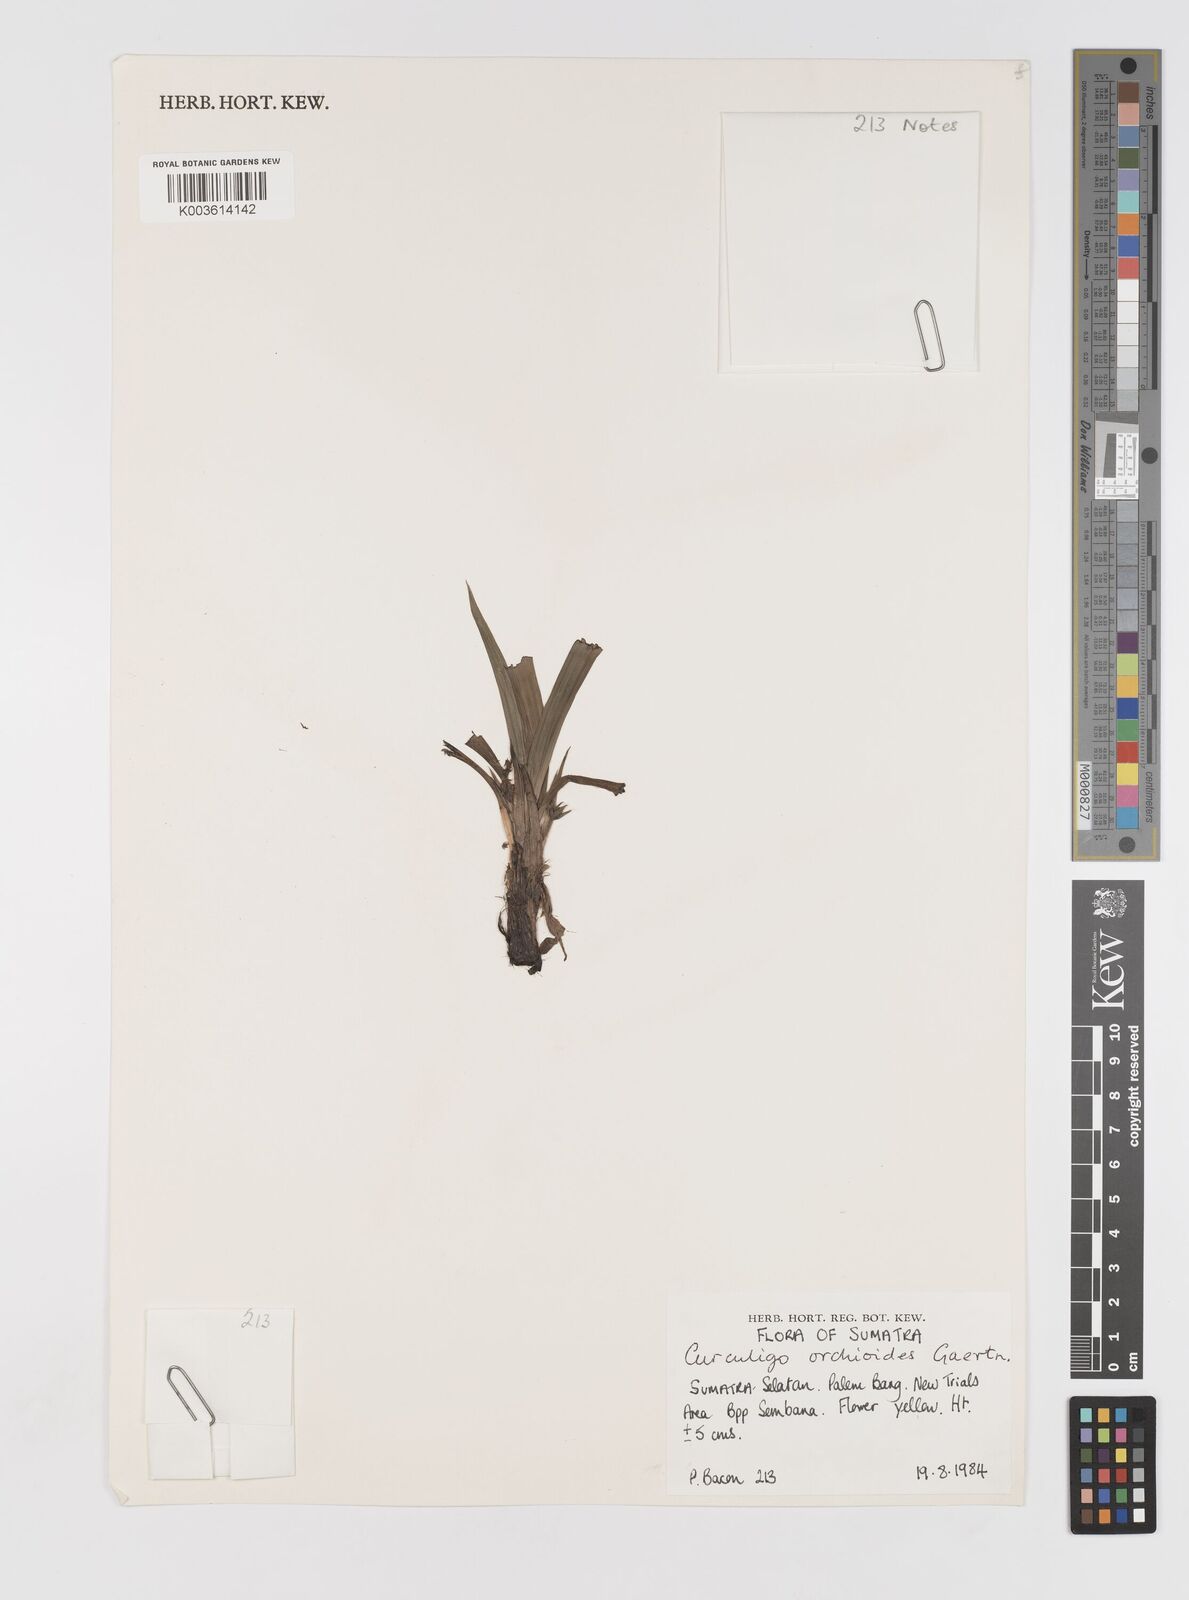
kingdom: Plantae
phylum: Tracheophyta
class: Liliopsida
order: Asparagales
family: Hypoxidaceae
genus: Curculigo
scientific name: Curculigo orchioides
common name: Golden eye-grass
